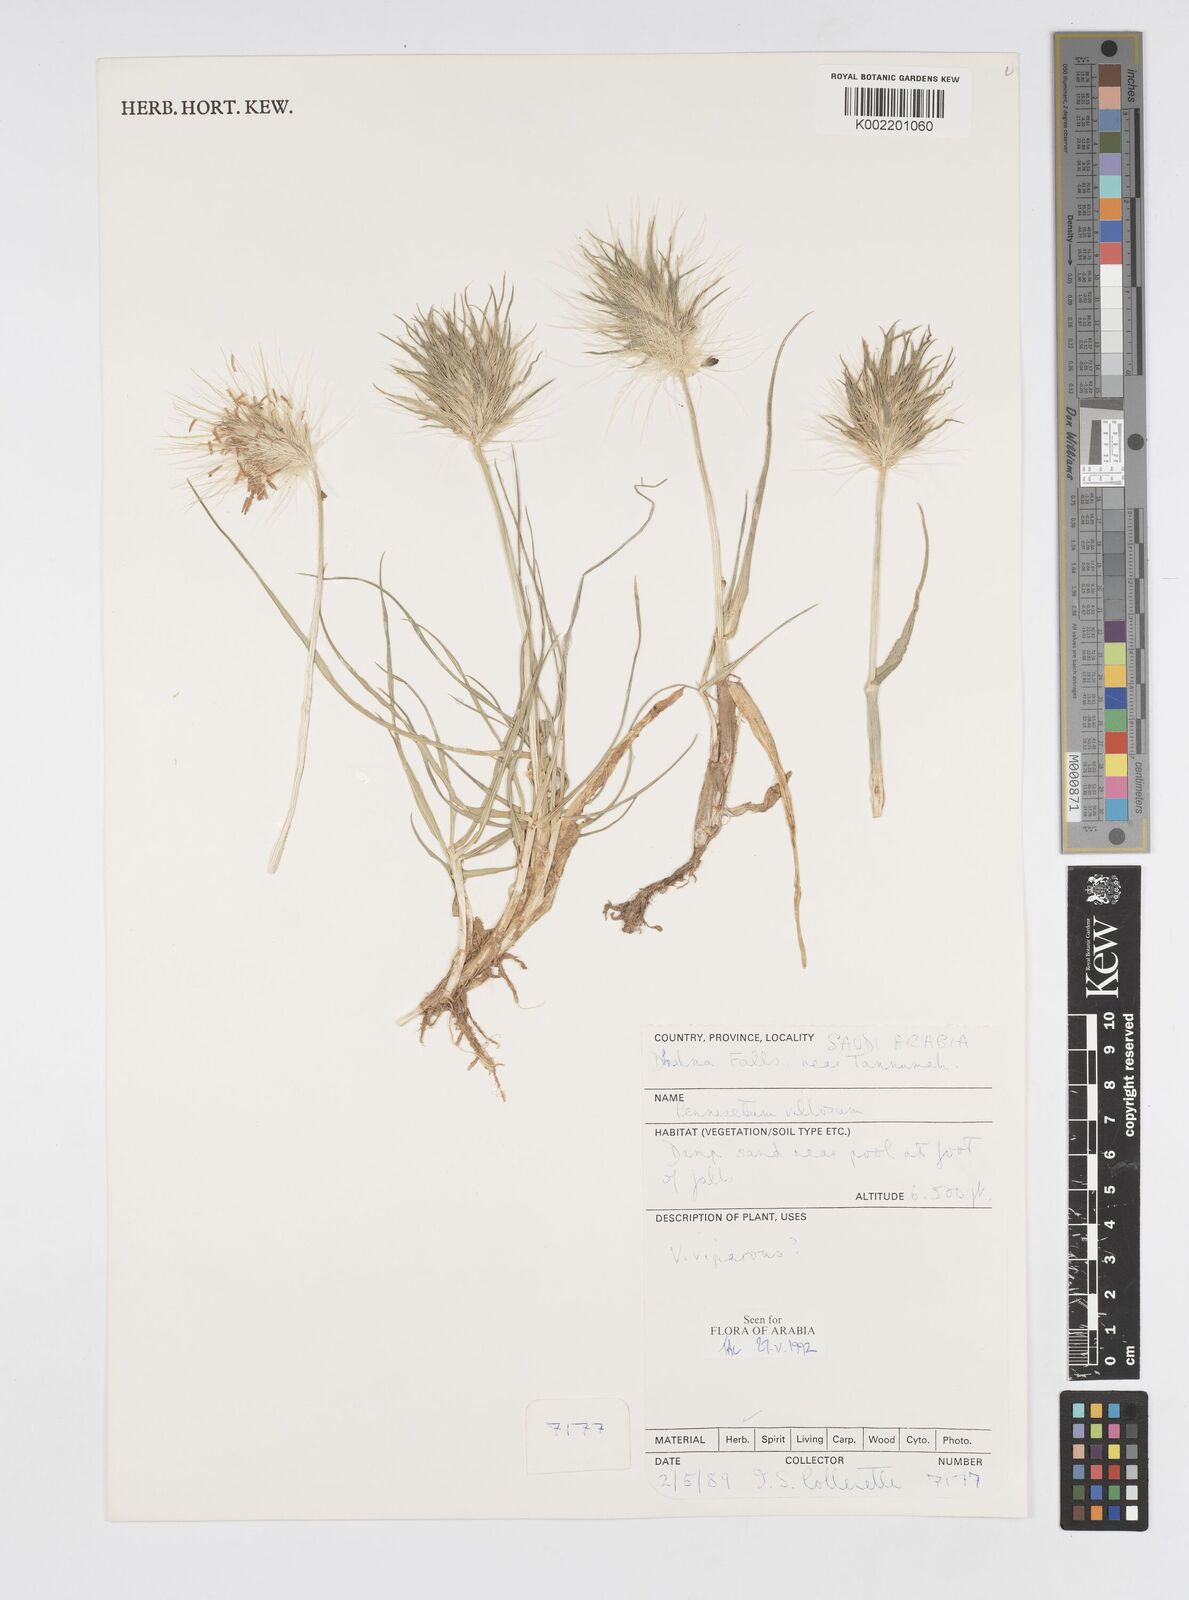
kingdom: Plantae
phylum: Tracheophyta
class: Liliopsida
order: Poales
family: Poaceae
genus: Cenchrus
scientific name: Cenchrus longisetus
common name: Feathertop
